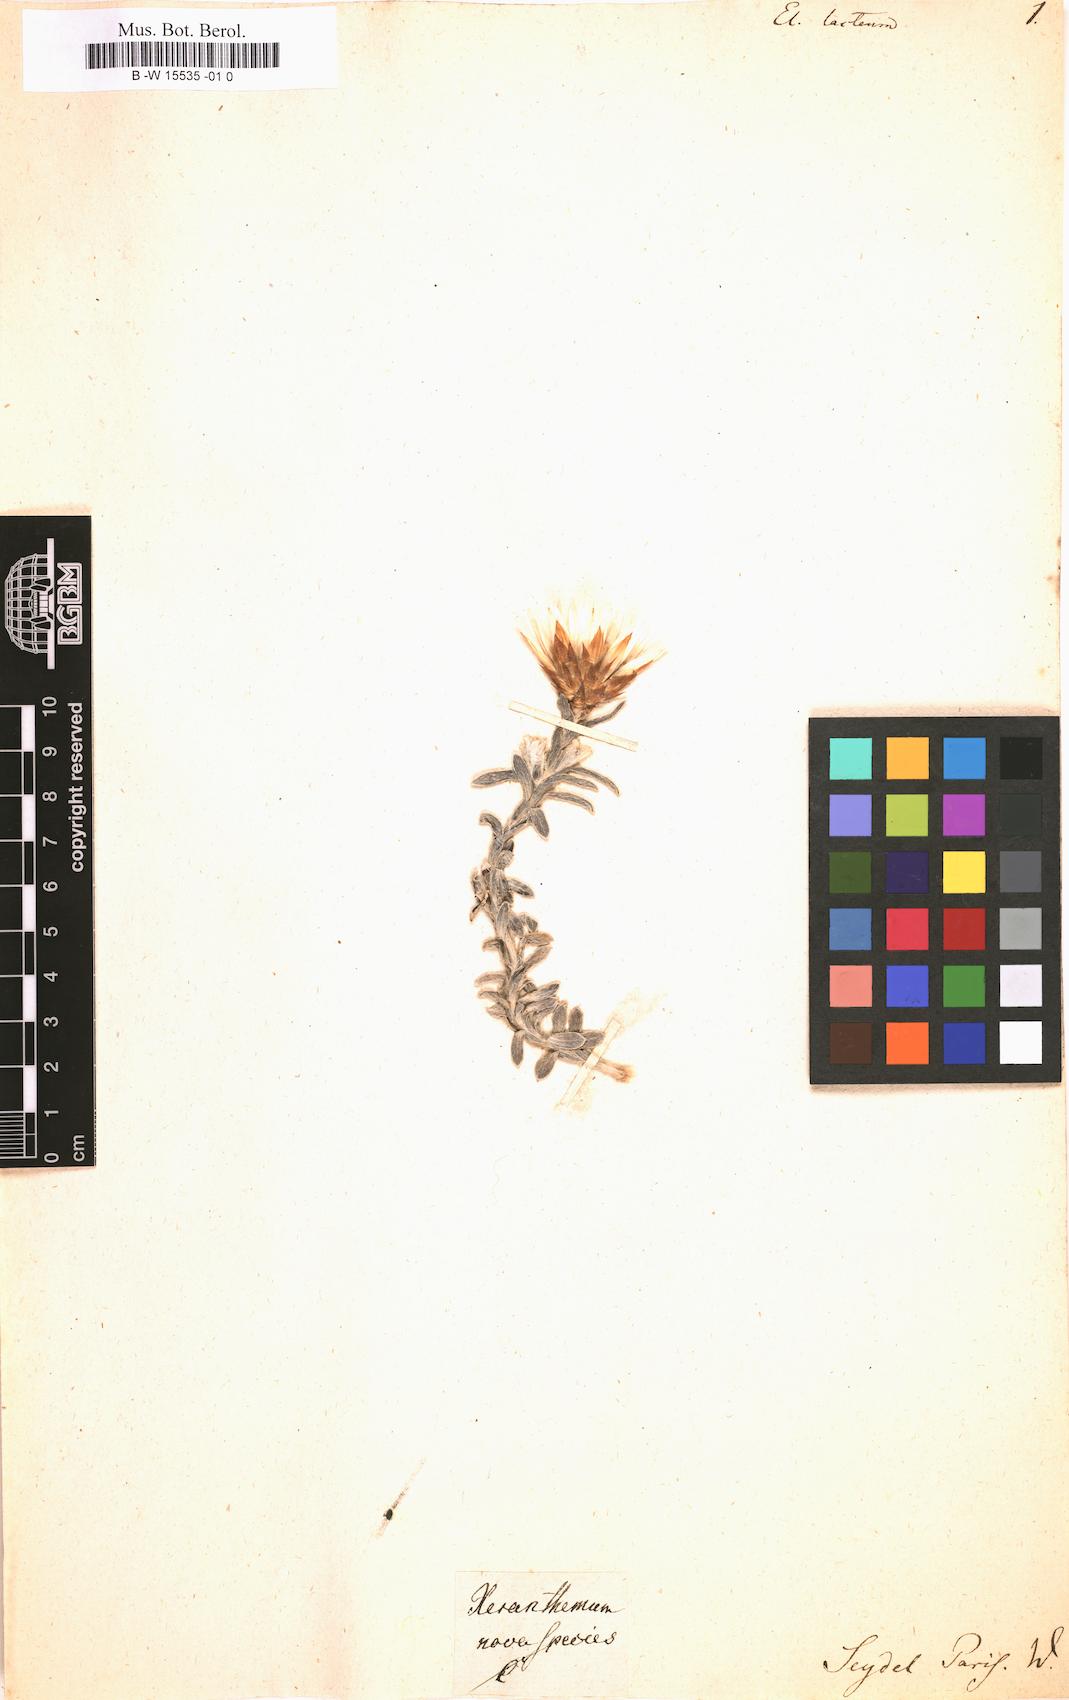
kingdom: Plantae
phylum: Tracheophyta
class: Magnoliopsida
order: Asterales
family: Asteraceae
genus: Helichrysum
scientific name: Helichrysum
